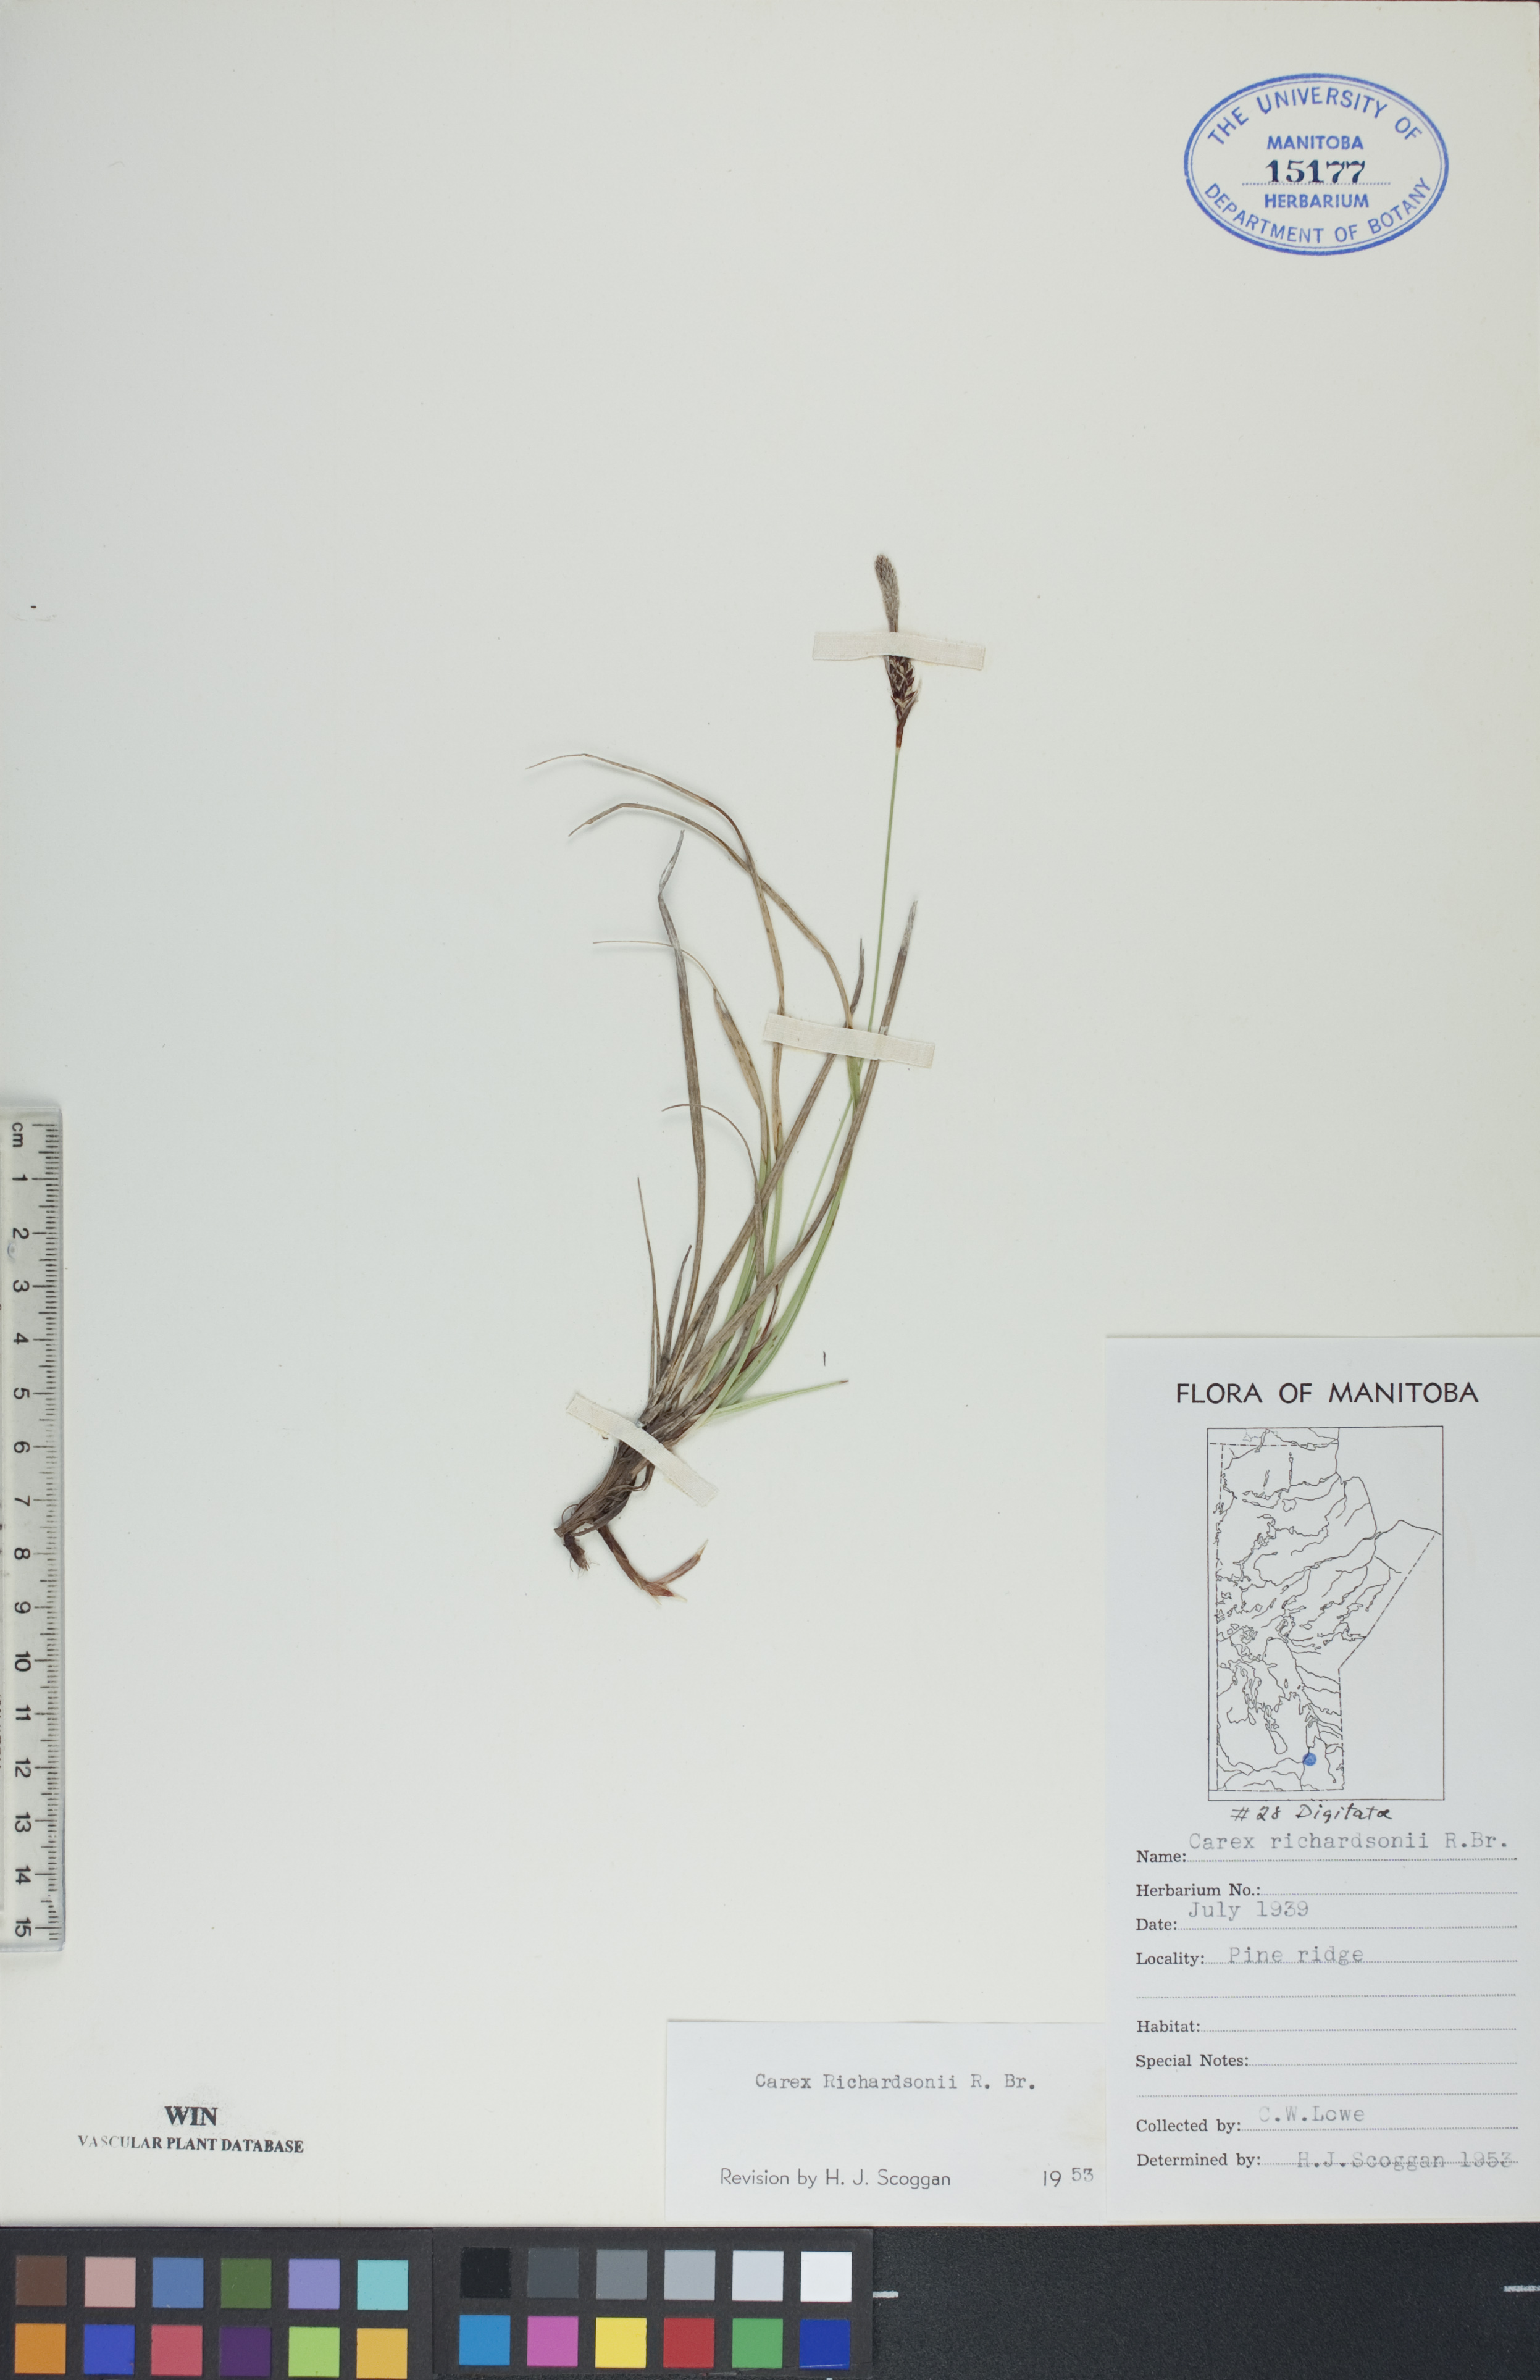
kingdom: Plantae
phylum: Tracheophyta
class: Liliopsida
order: Poales
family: Cyperaceae
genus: Carex
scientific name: Carex richardsonii
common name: Prairie hummock sedge
